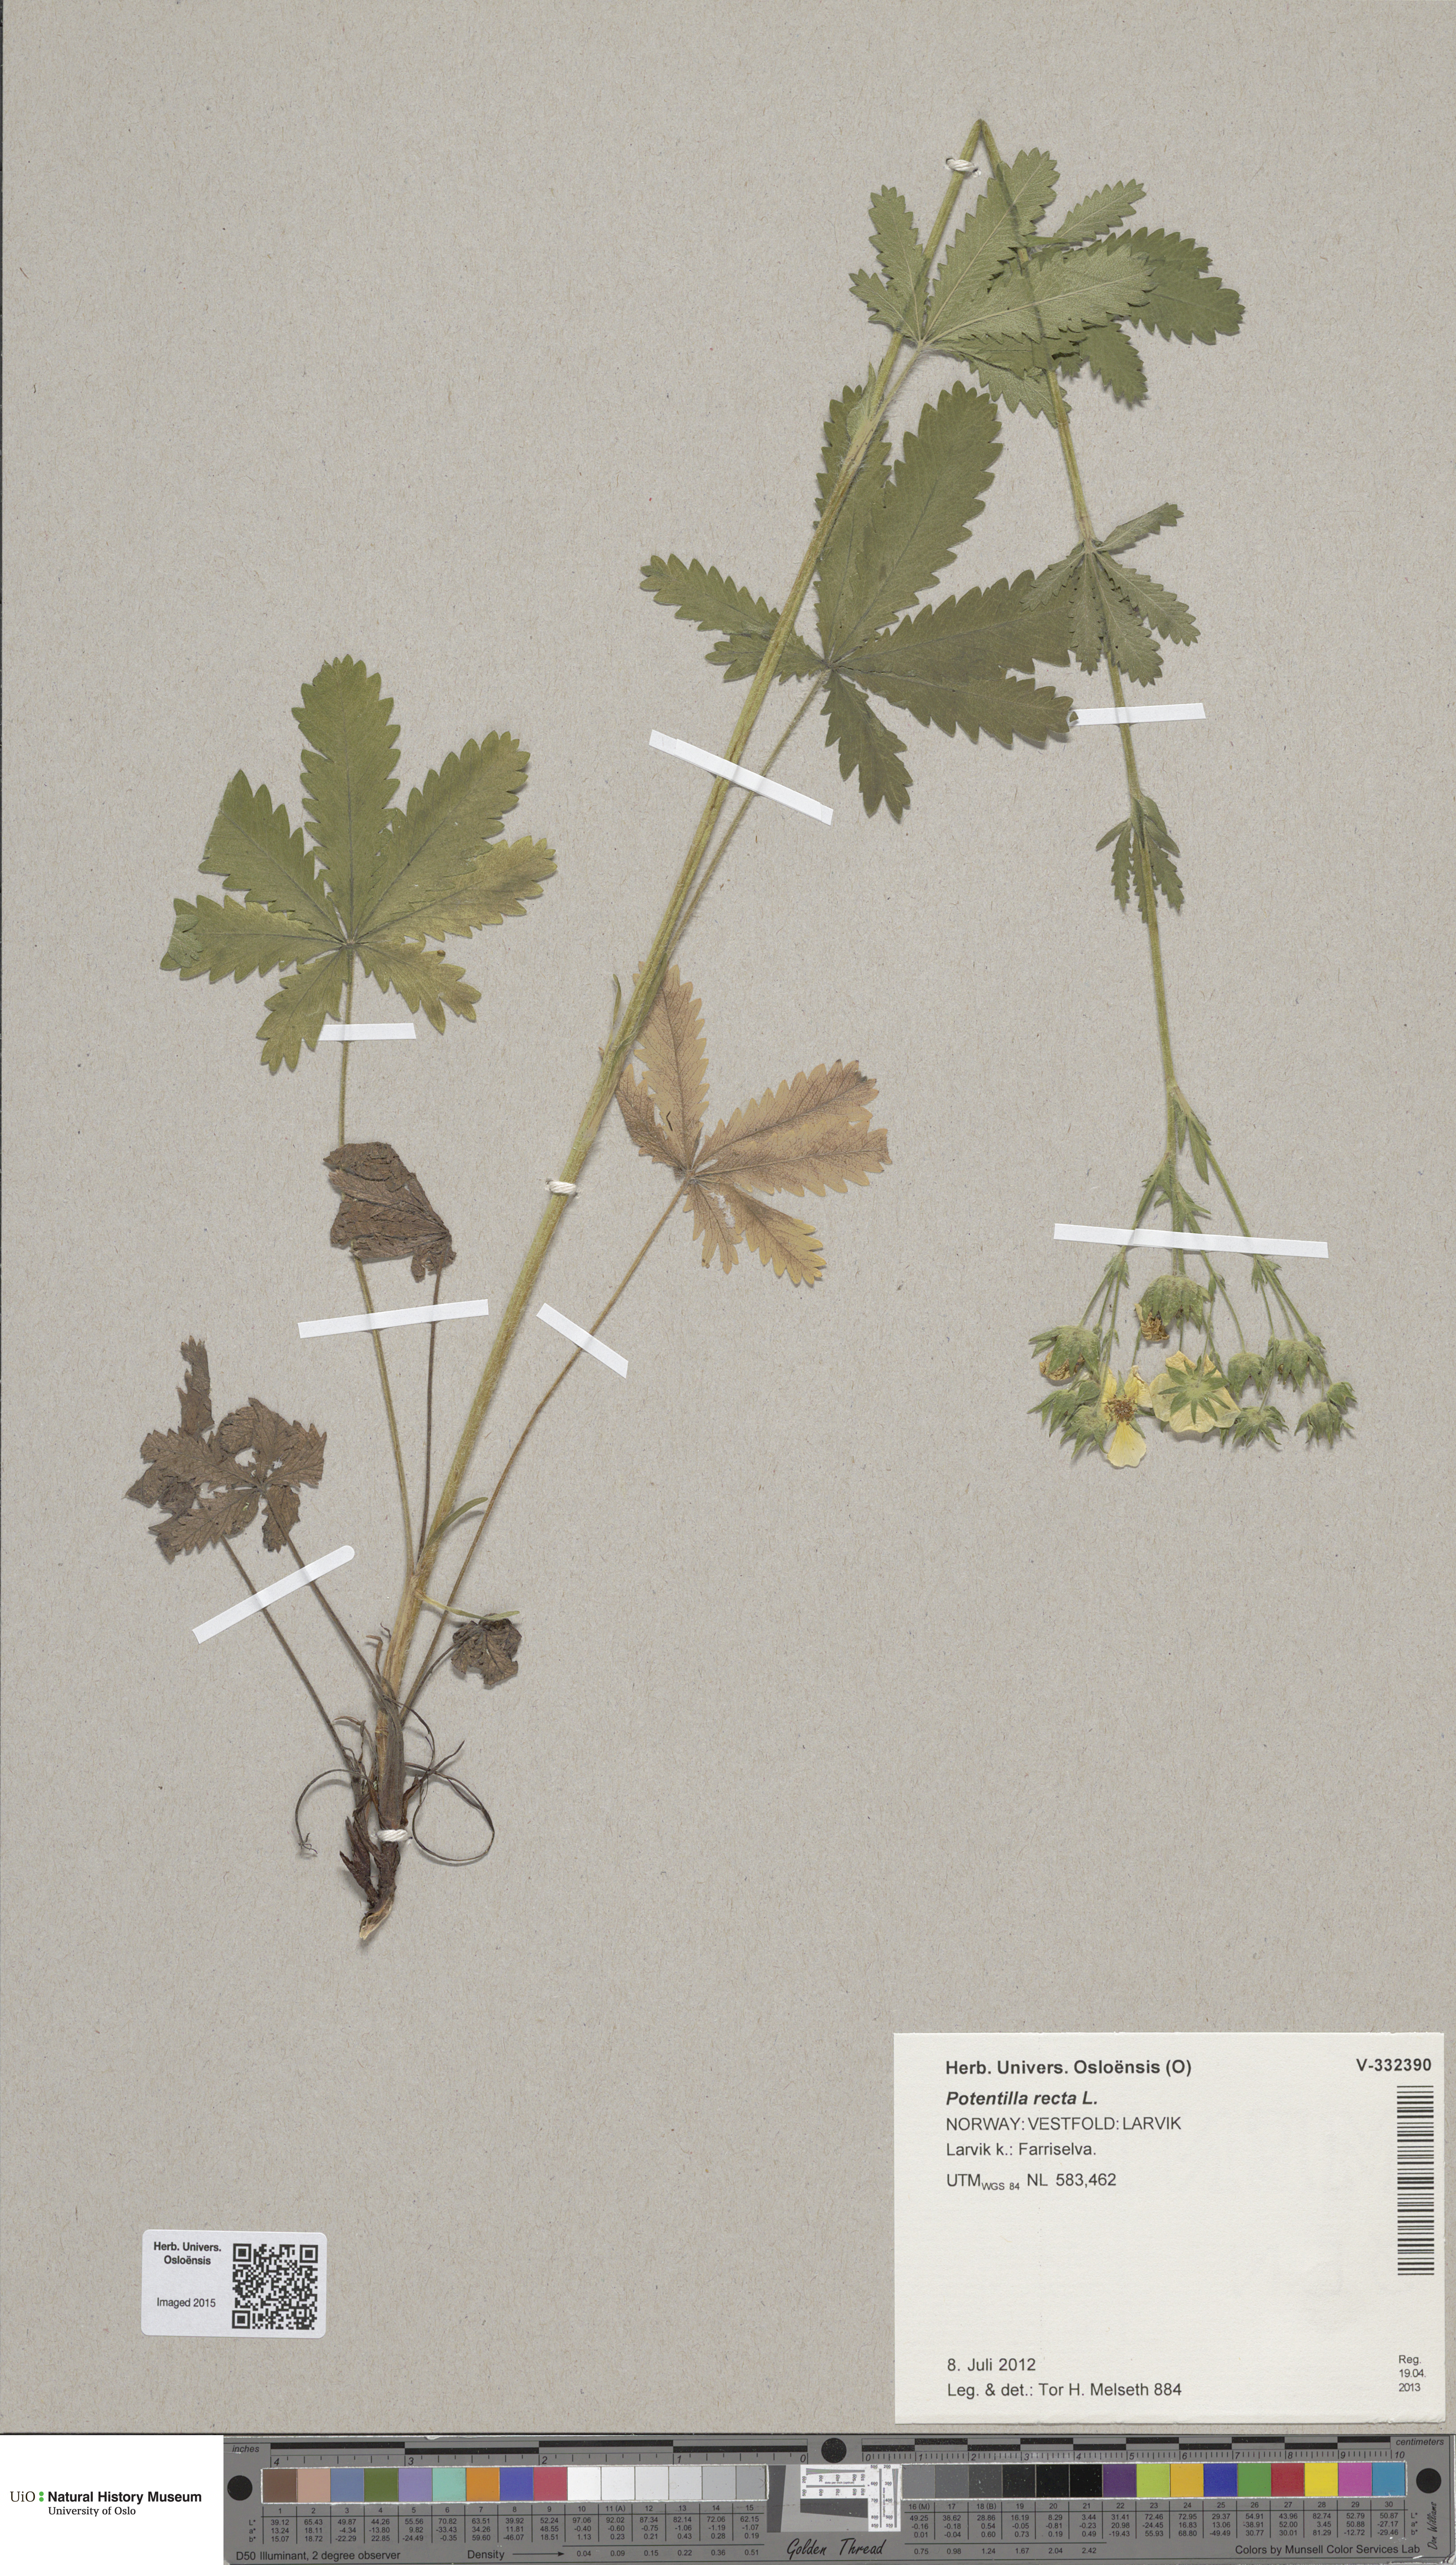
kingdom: Plantae
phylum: Tracheophyta
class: Magnoliopsida
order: Rosales
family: Rosaceae
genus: Potentilla
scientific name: Potentilla recta
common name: Sulphur cinquefoil
